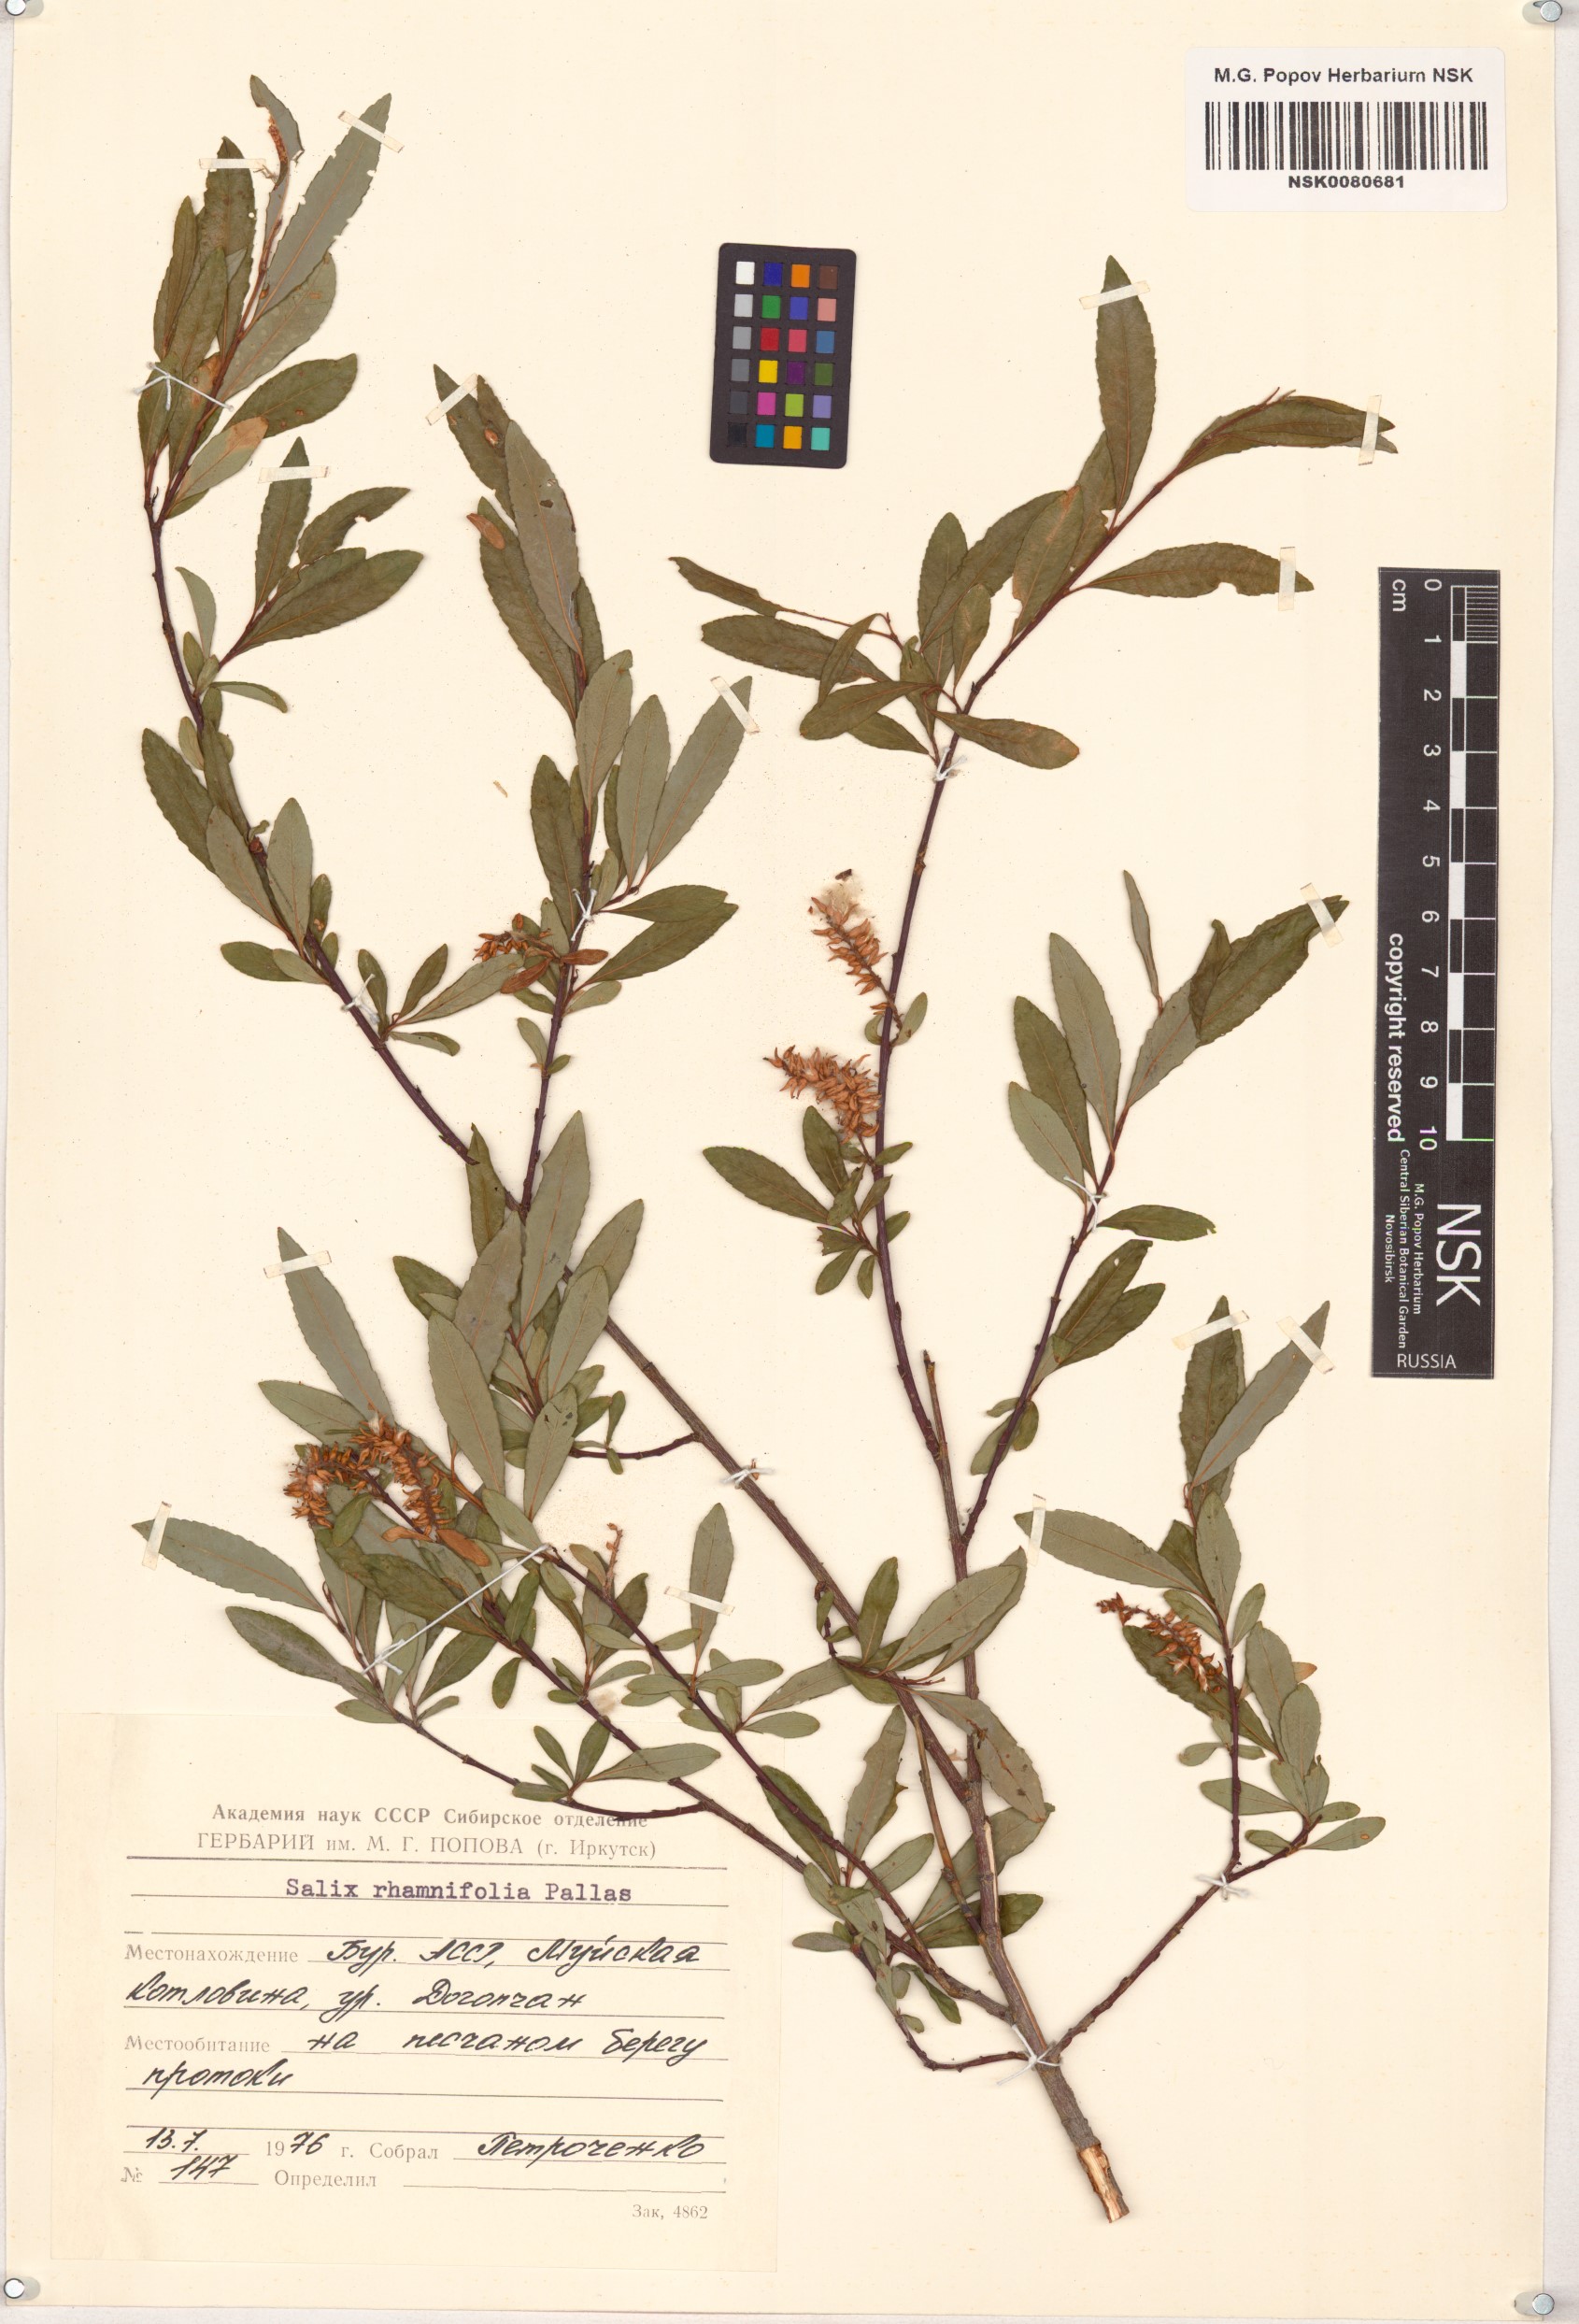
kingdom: Plantae
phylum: Tracheophyta
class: Magnoliopsida
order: Malpighiales
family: Salicaceae
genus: Salix
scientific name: Salix rhamnifolia
